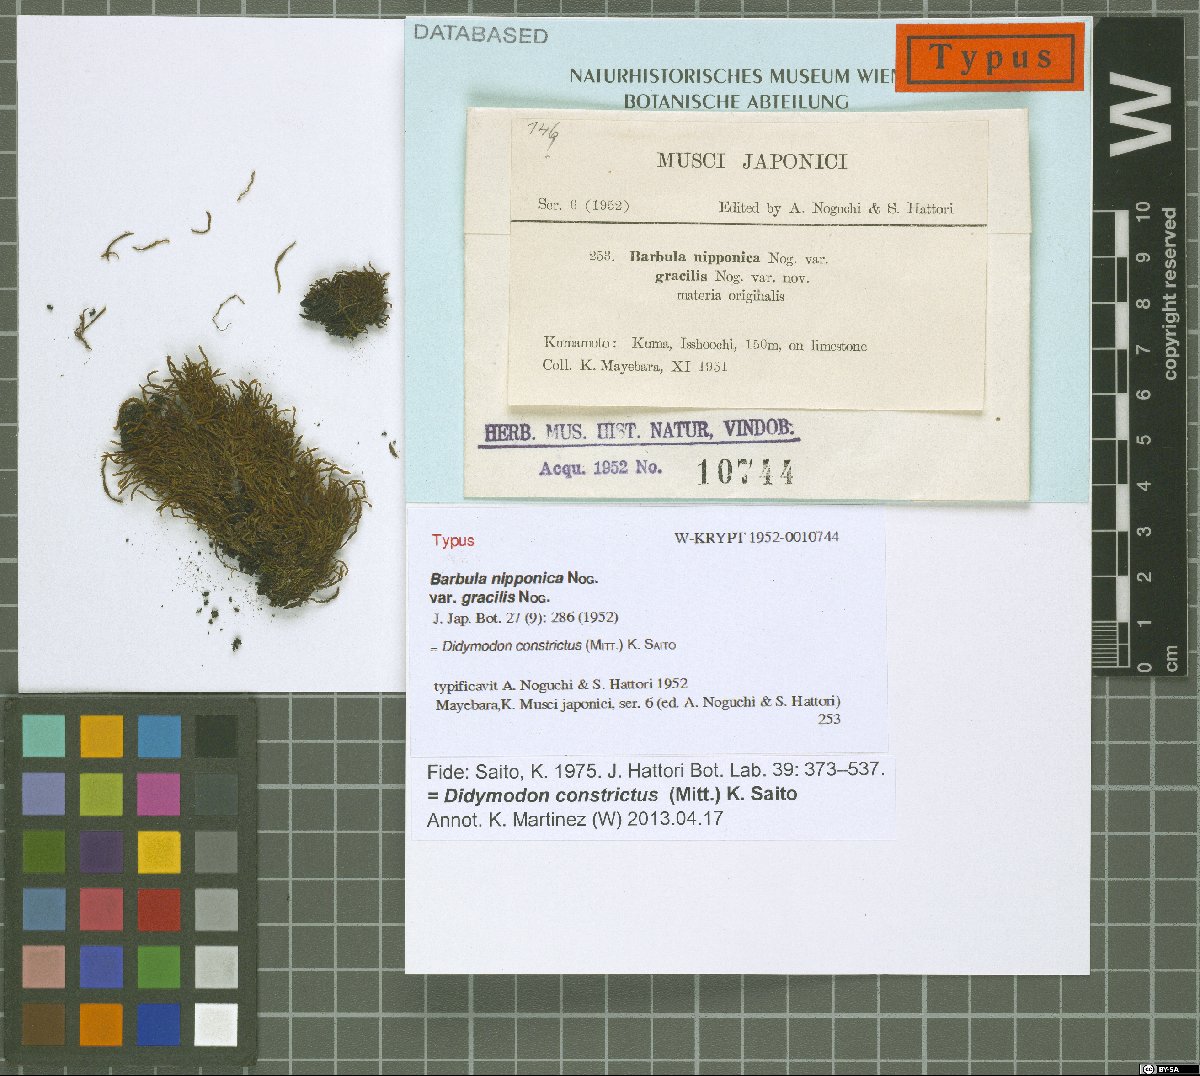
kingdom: Plantae
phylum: Bryophyta
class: Bryopsida
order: Pottiales
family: Pottiaceae
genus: Didymodon
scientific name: Didymodon constrictus
